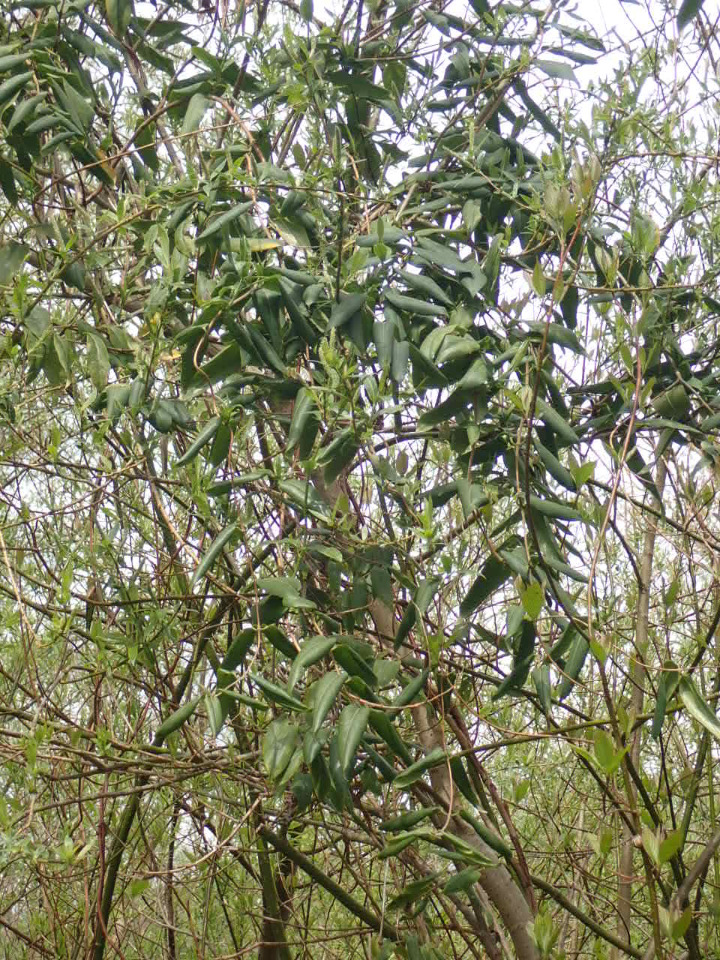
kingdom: Plantae
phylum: Tracheophyta
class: Magnoliopsida
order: Dipsacales
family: Caprifoliaceae
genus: Lonicera
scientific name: Lonicera acuminata
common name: Henrys gedeblad
